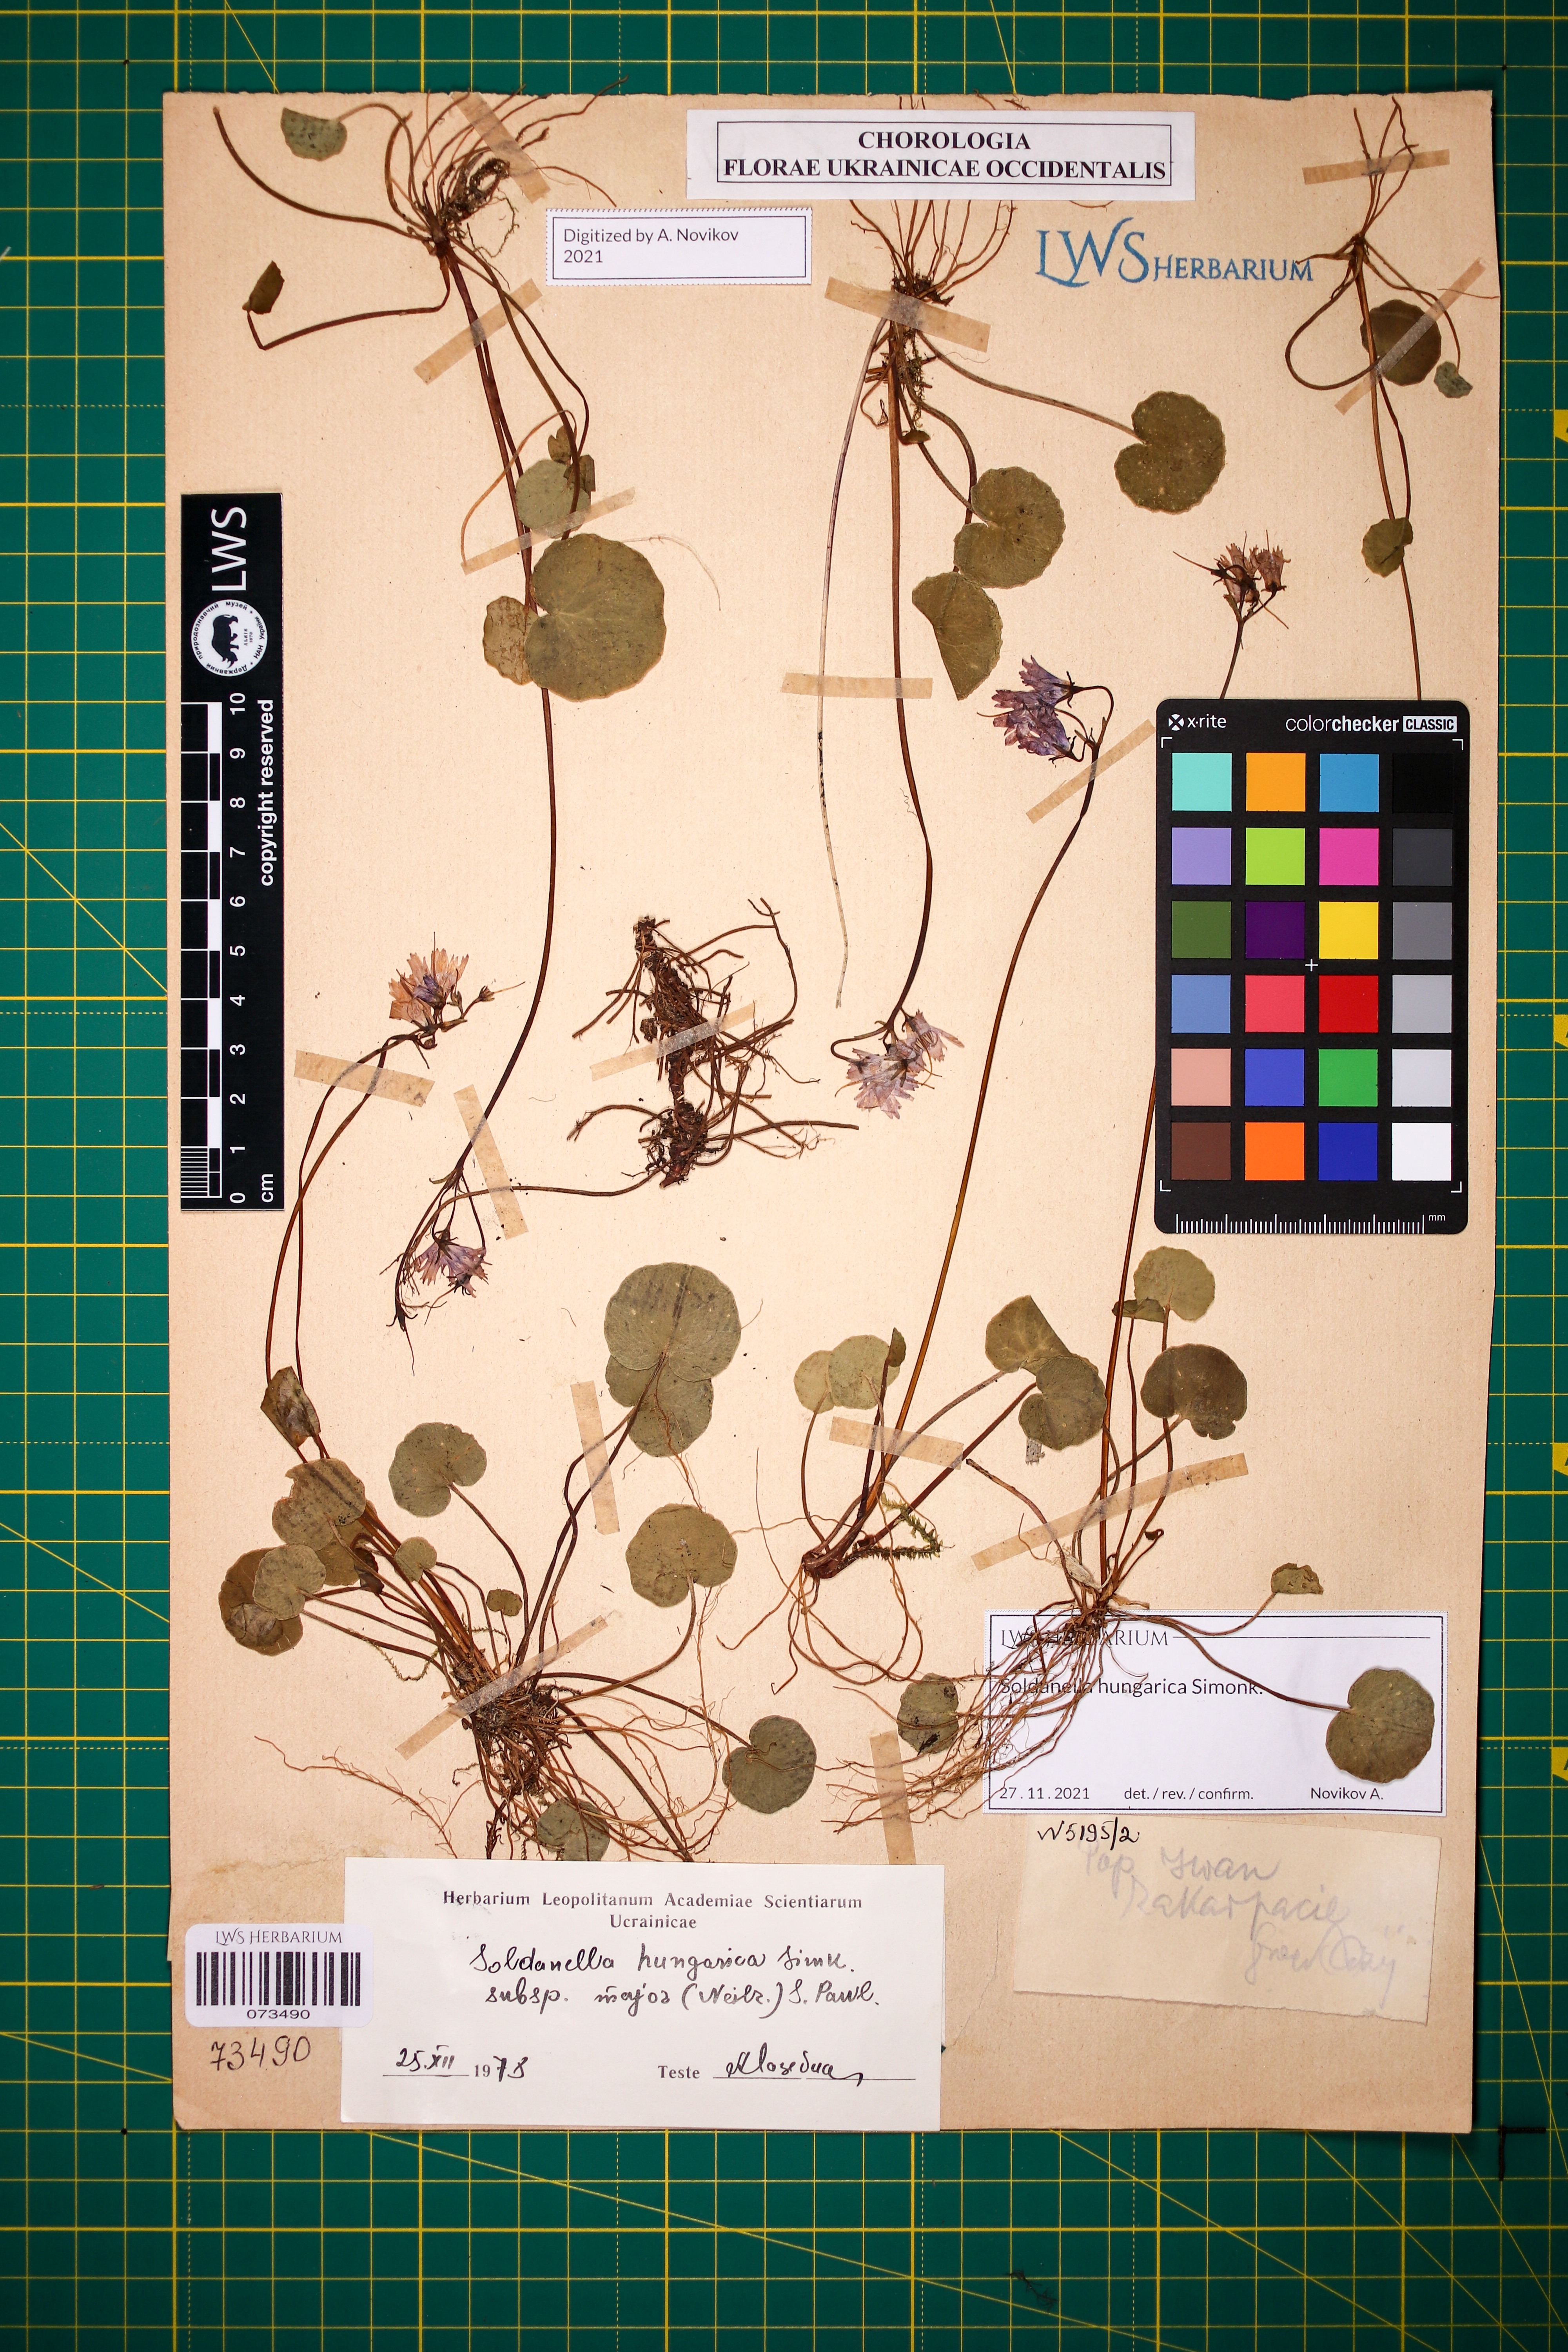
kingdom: Plantae
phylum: Tracheophyta
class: Magnoliopsida
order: Ericales
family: Primulaceae
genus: Soldanella
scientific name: Soldanella hungarica
